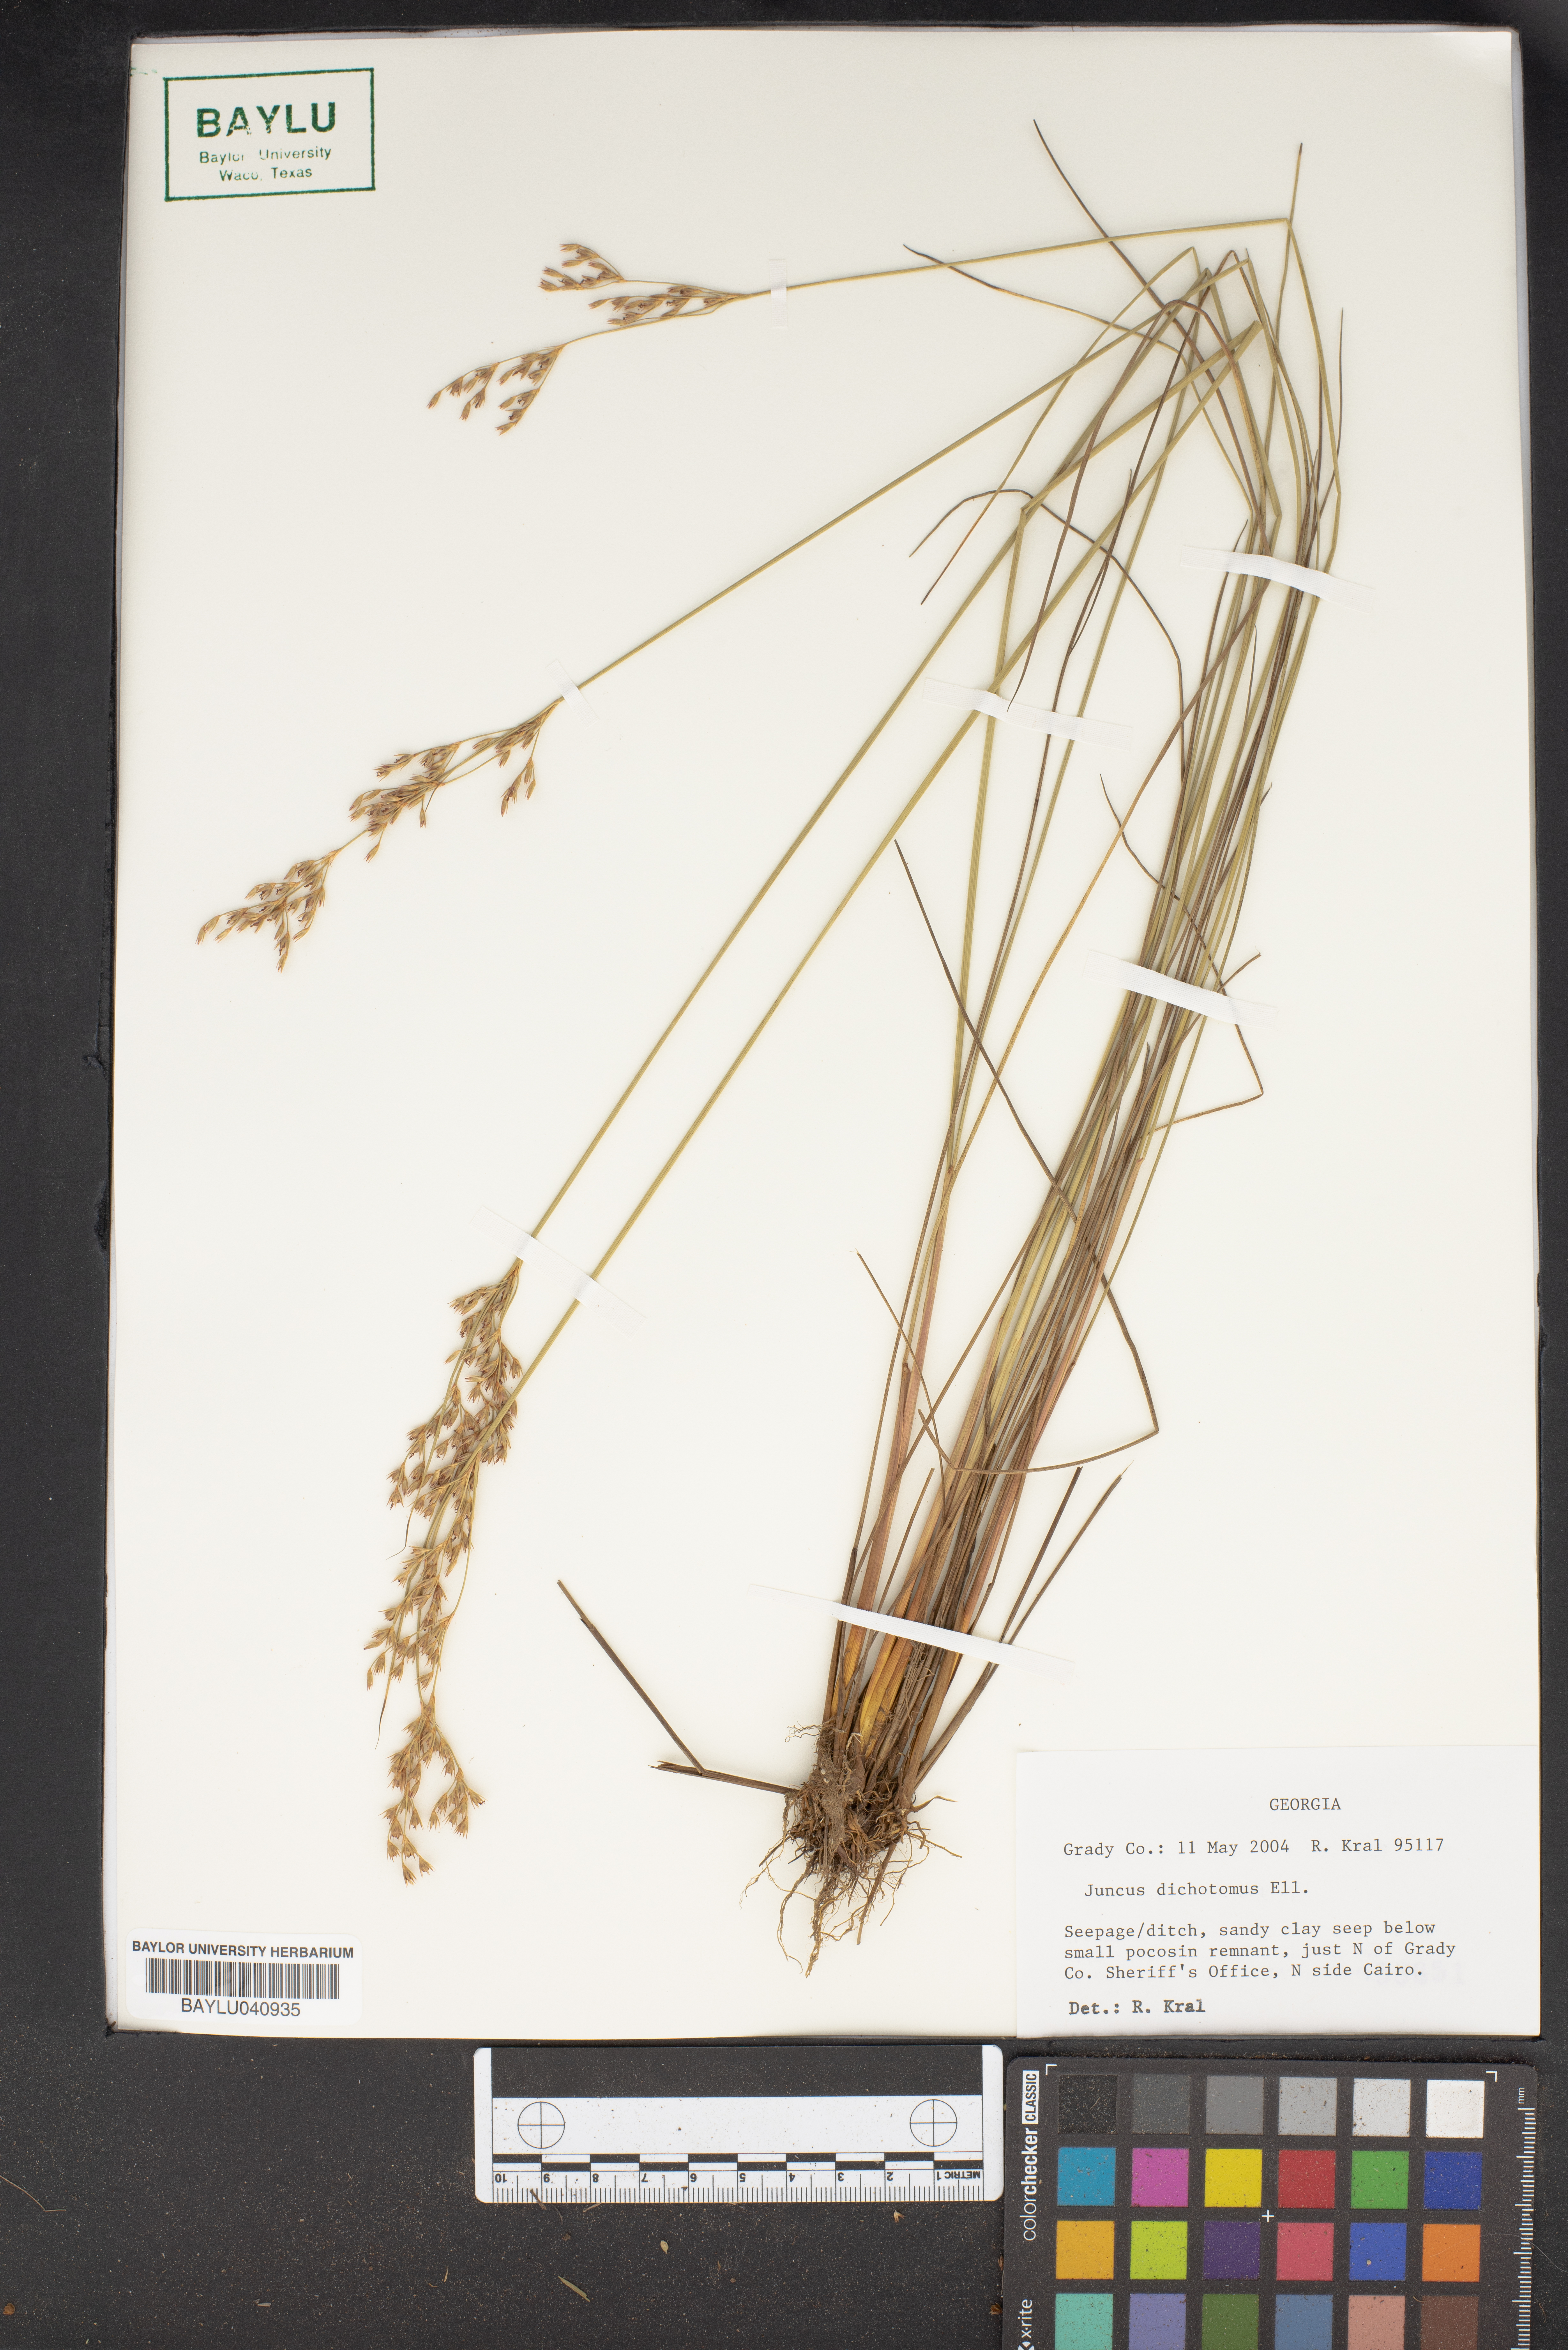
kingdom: Plantae
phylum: Tracheophyta
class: Liliopsida
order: Poales
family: Juncaceae
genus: Juncus
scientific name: Juncus dichotomus
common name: Forked rush
